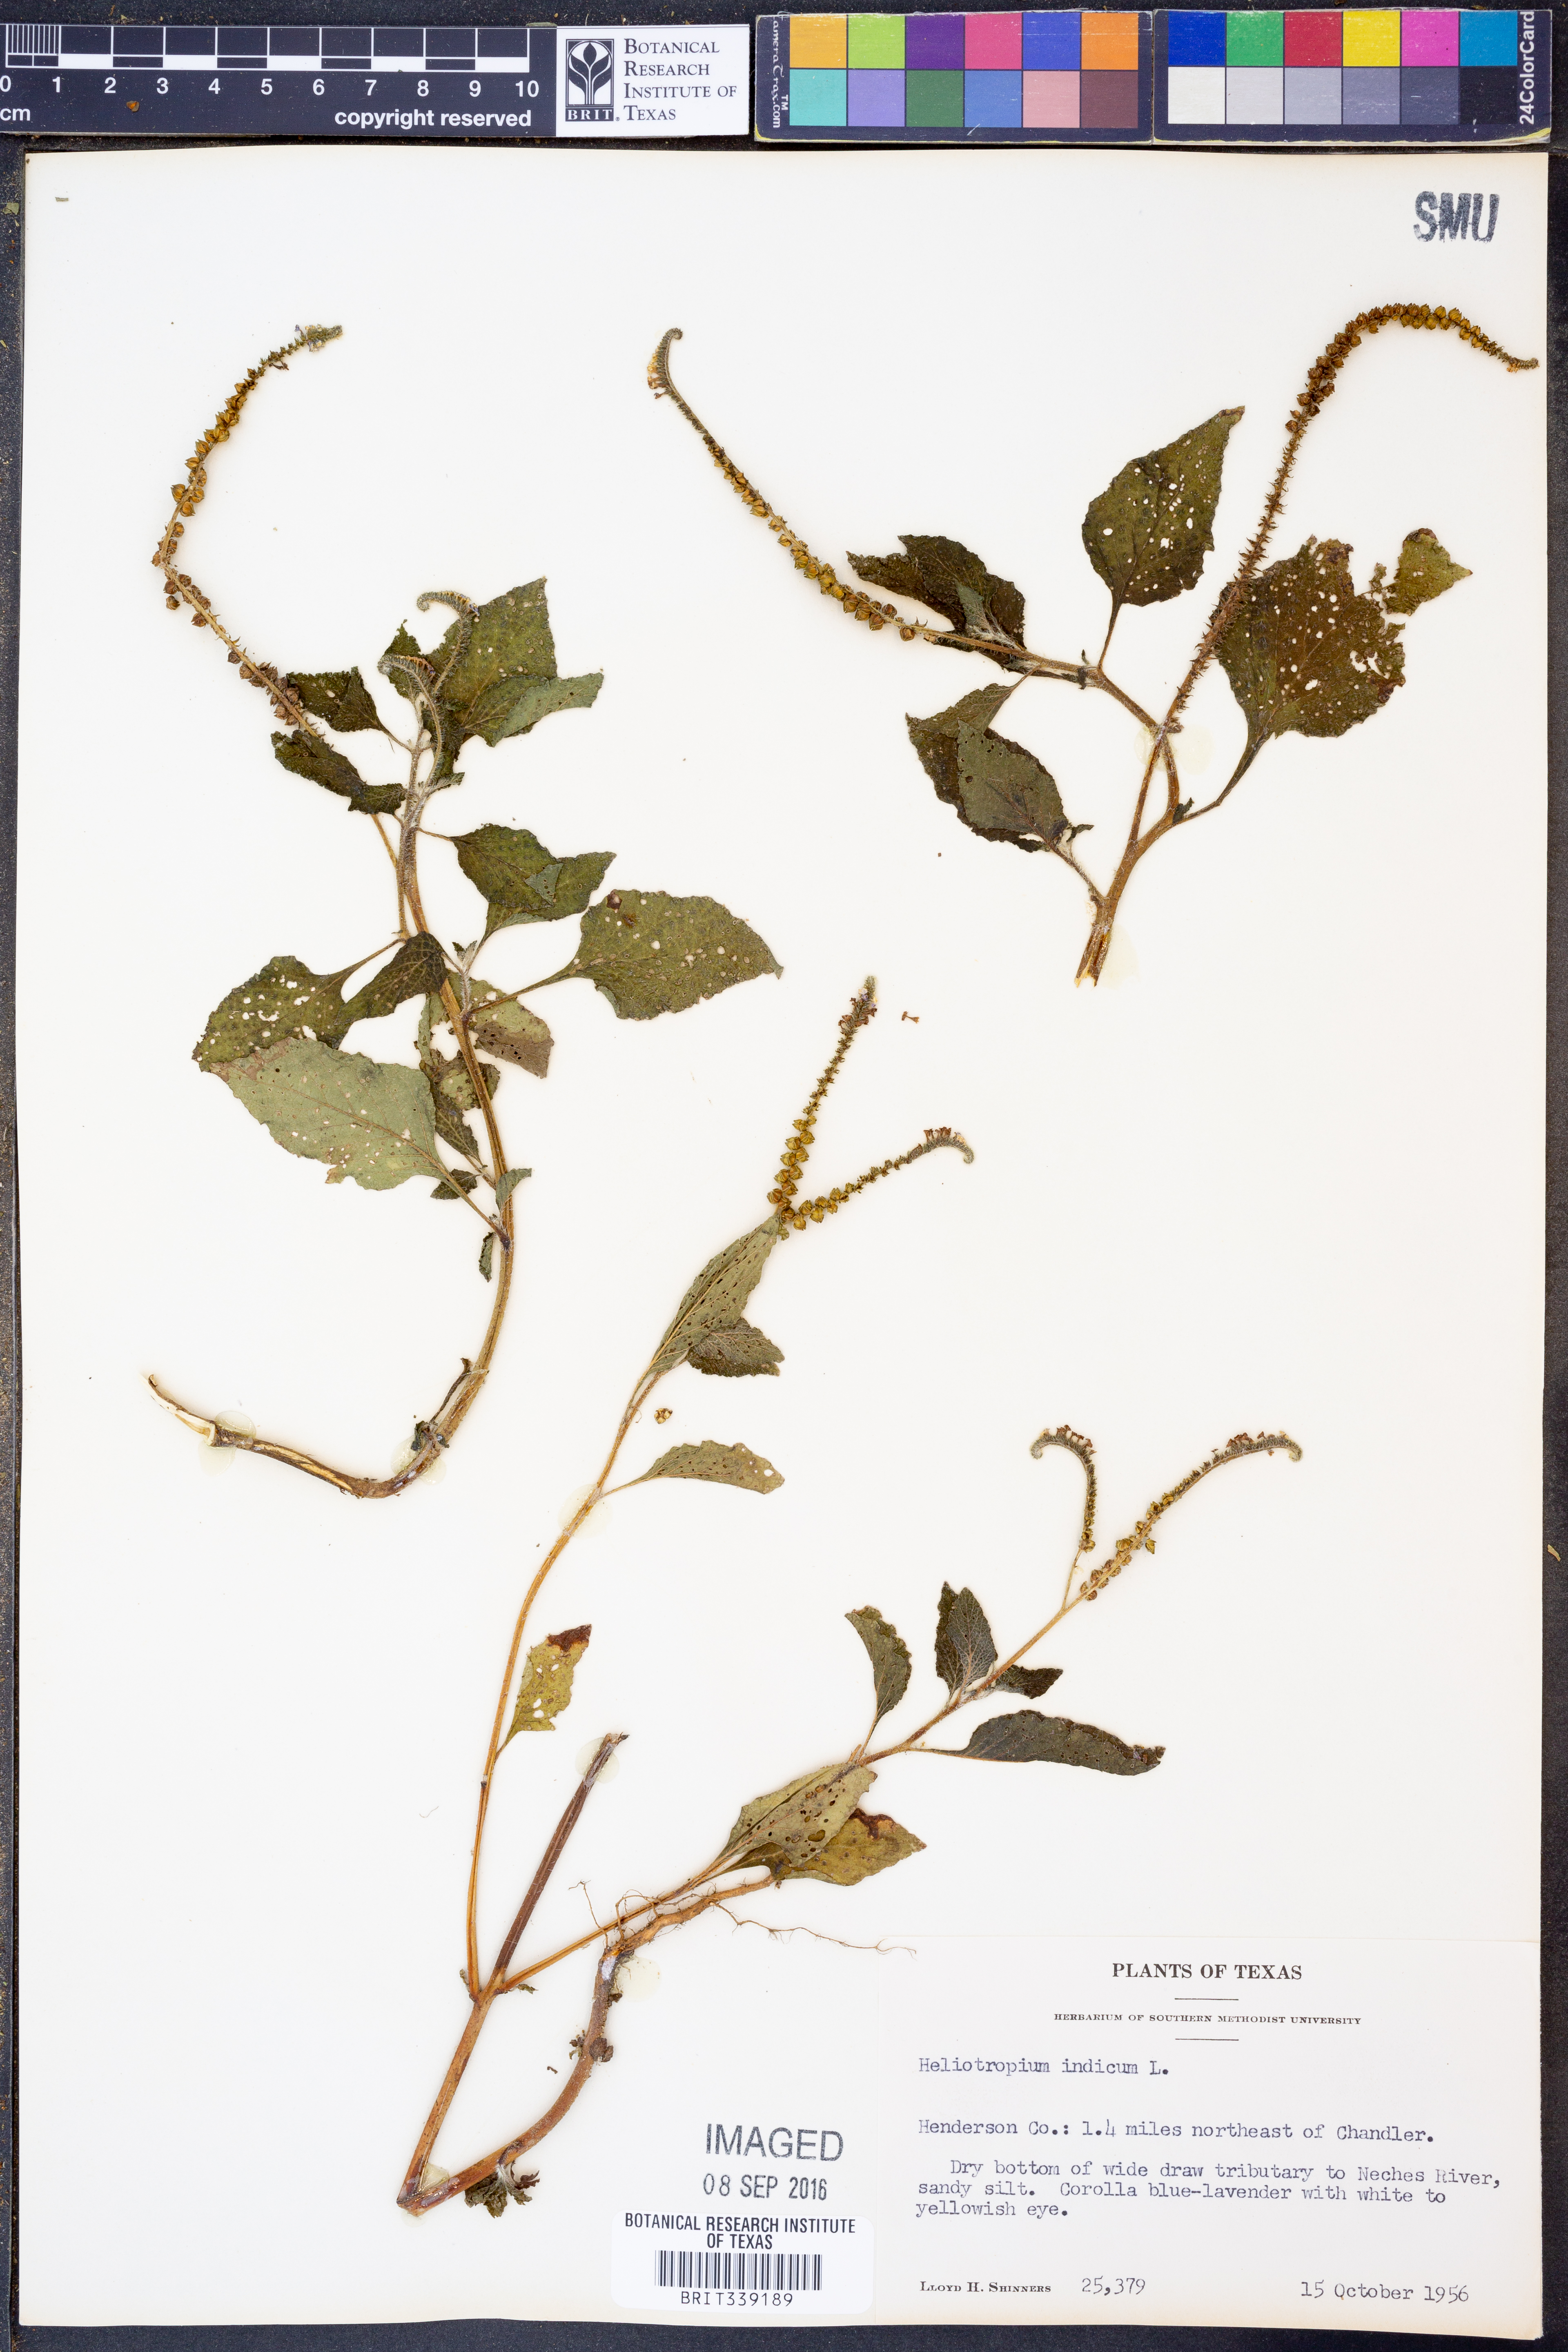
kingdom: Plantae
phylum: Tracheophyta
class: Magnoliopsida
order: Boraginales
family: Heliotropiaceae
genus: Heliotropium
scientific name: Heliotropium indicum
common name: Indian heliotrope
